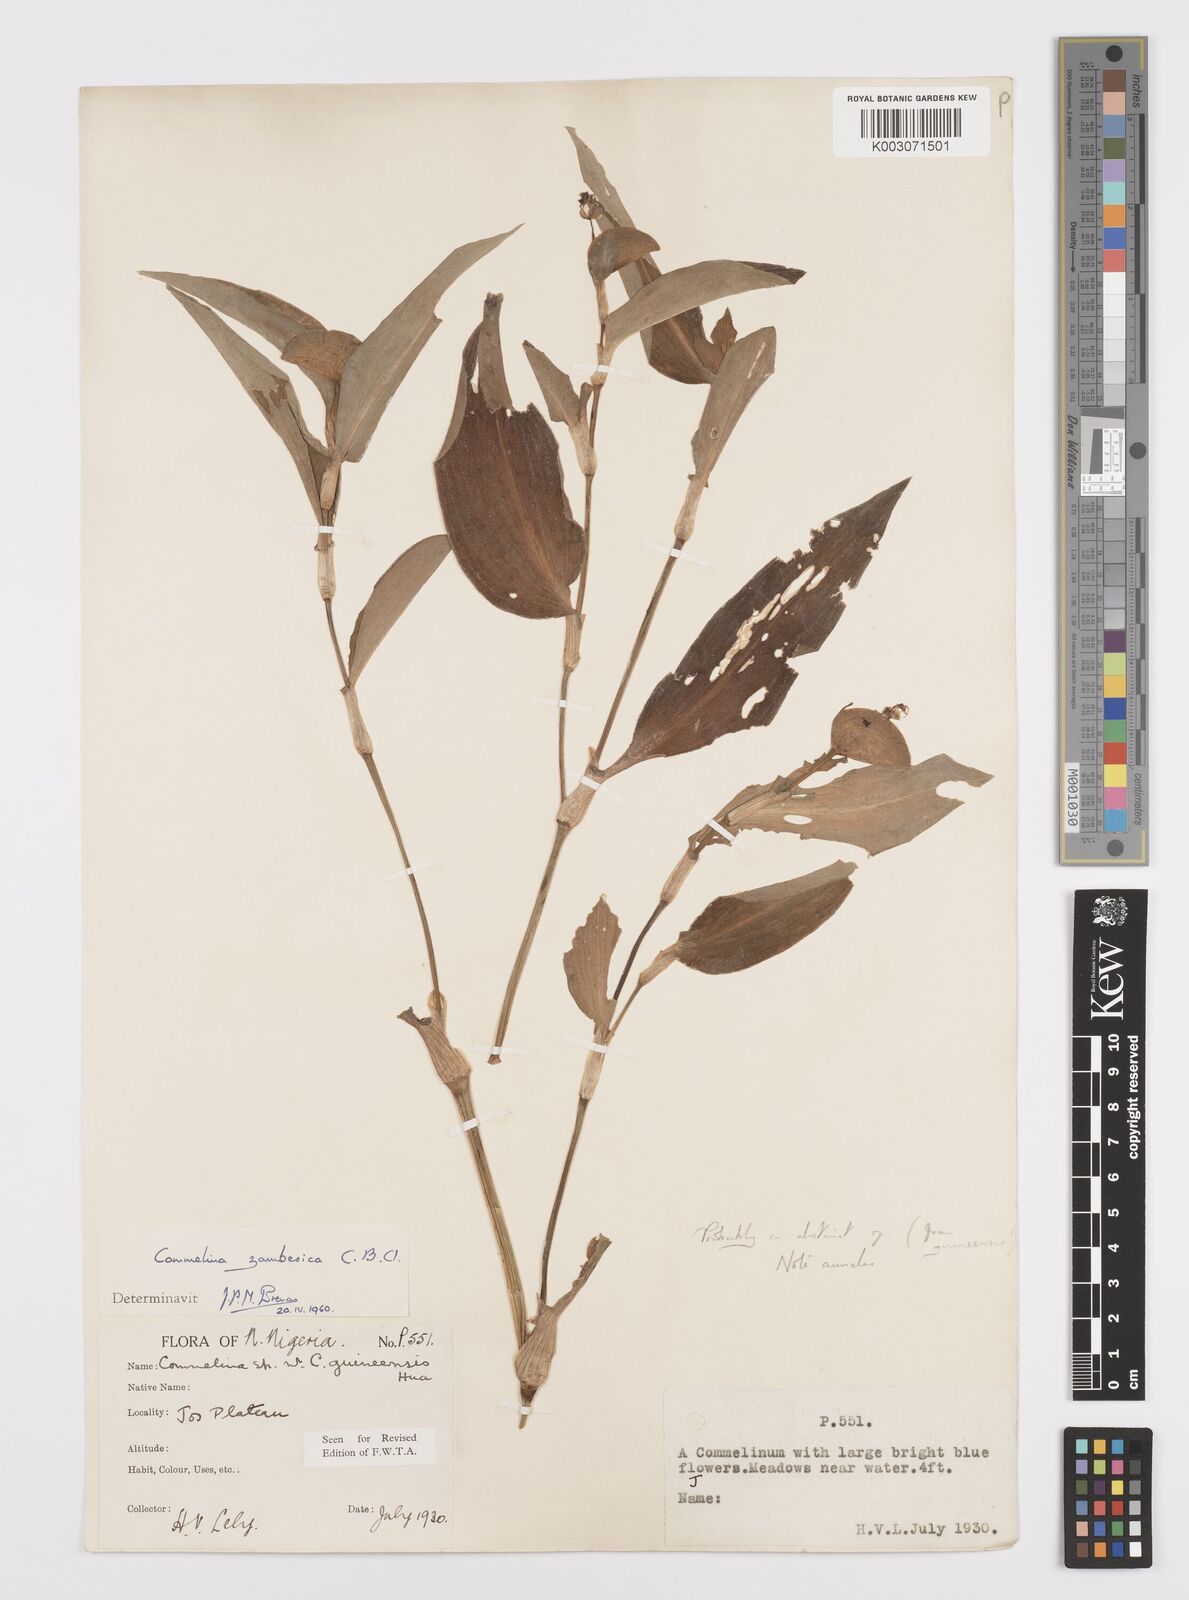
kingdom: Plantae
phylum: Tracheophyta
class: Liliopsida
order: Commelinales
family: Commelinaceae
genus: Commelina
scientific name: Commelina zambesica
